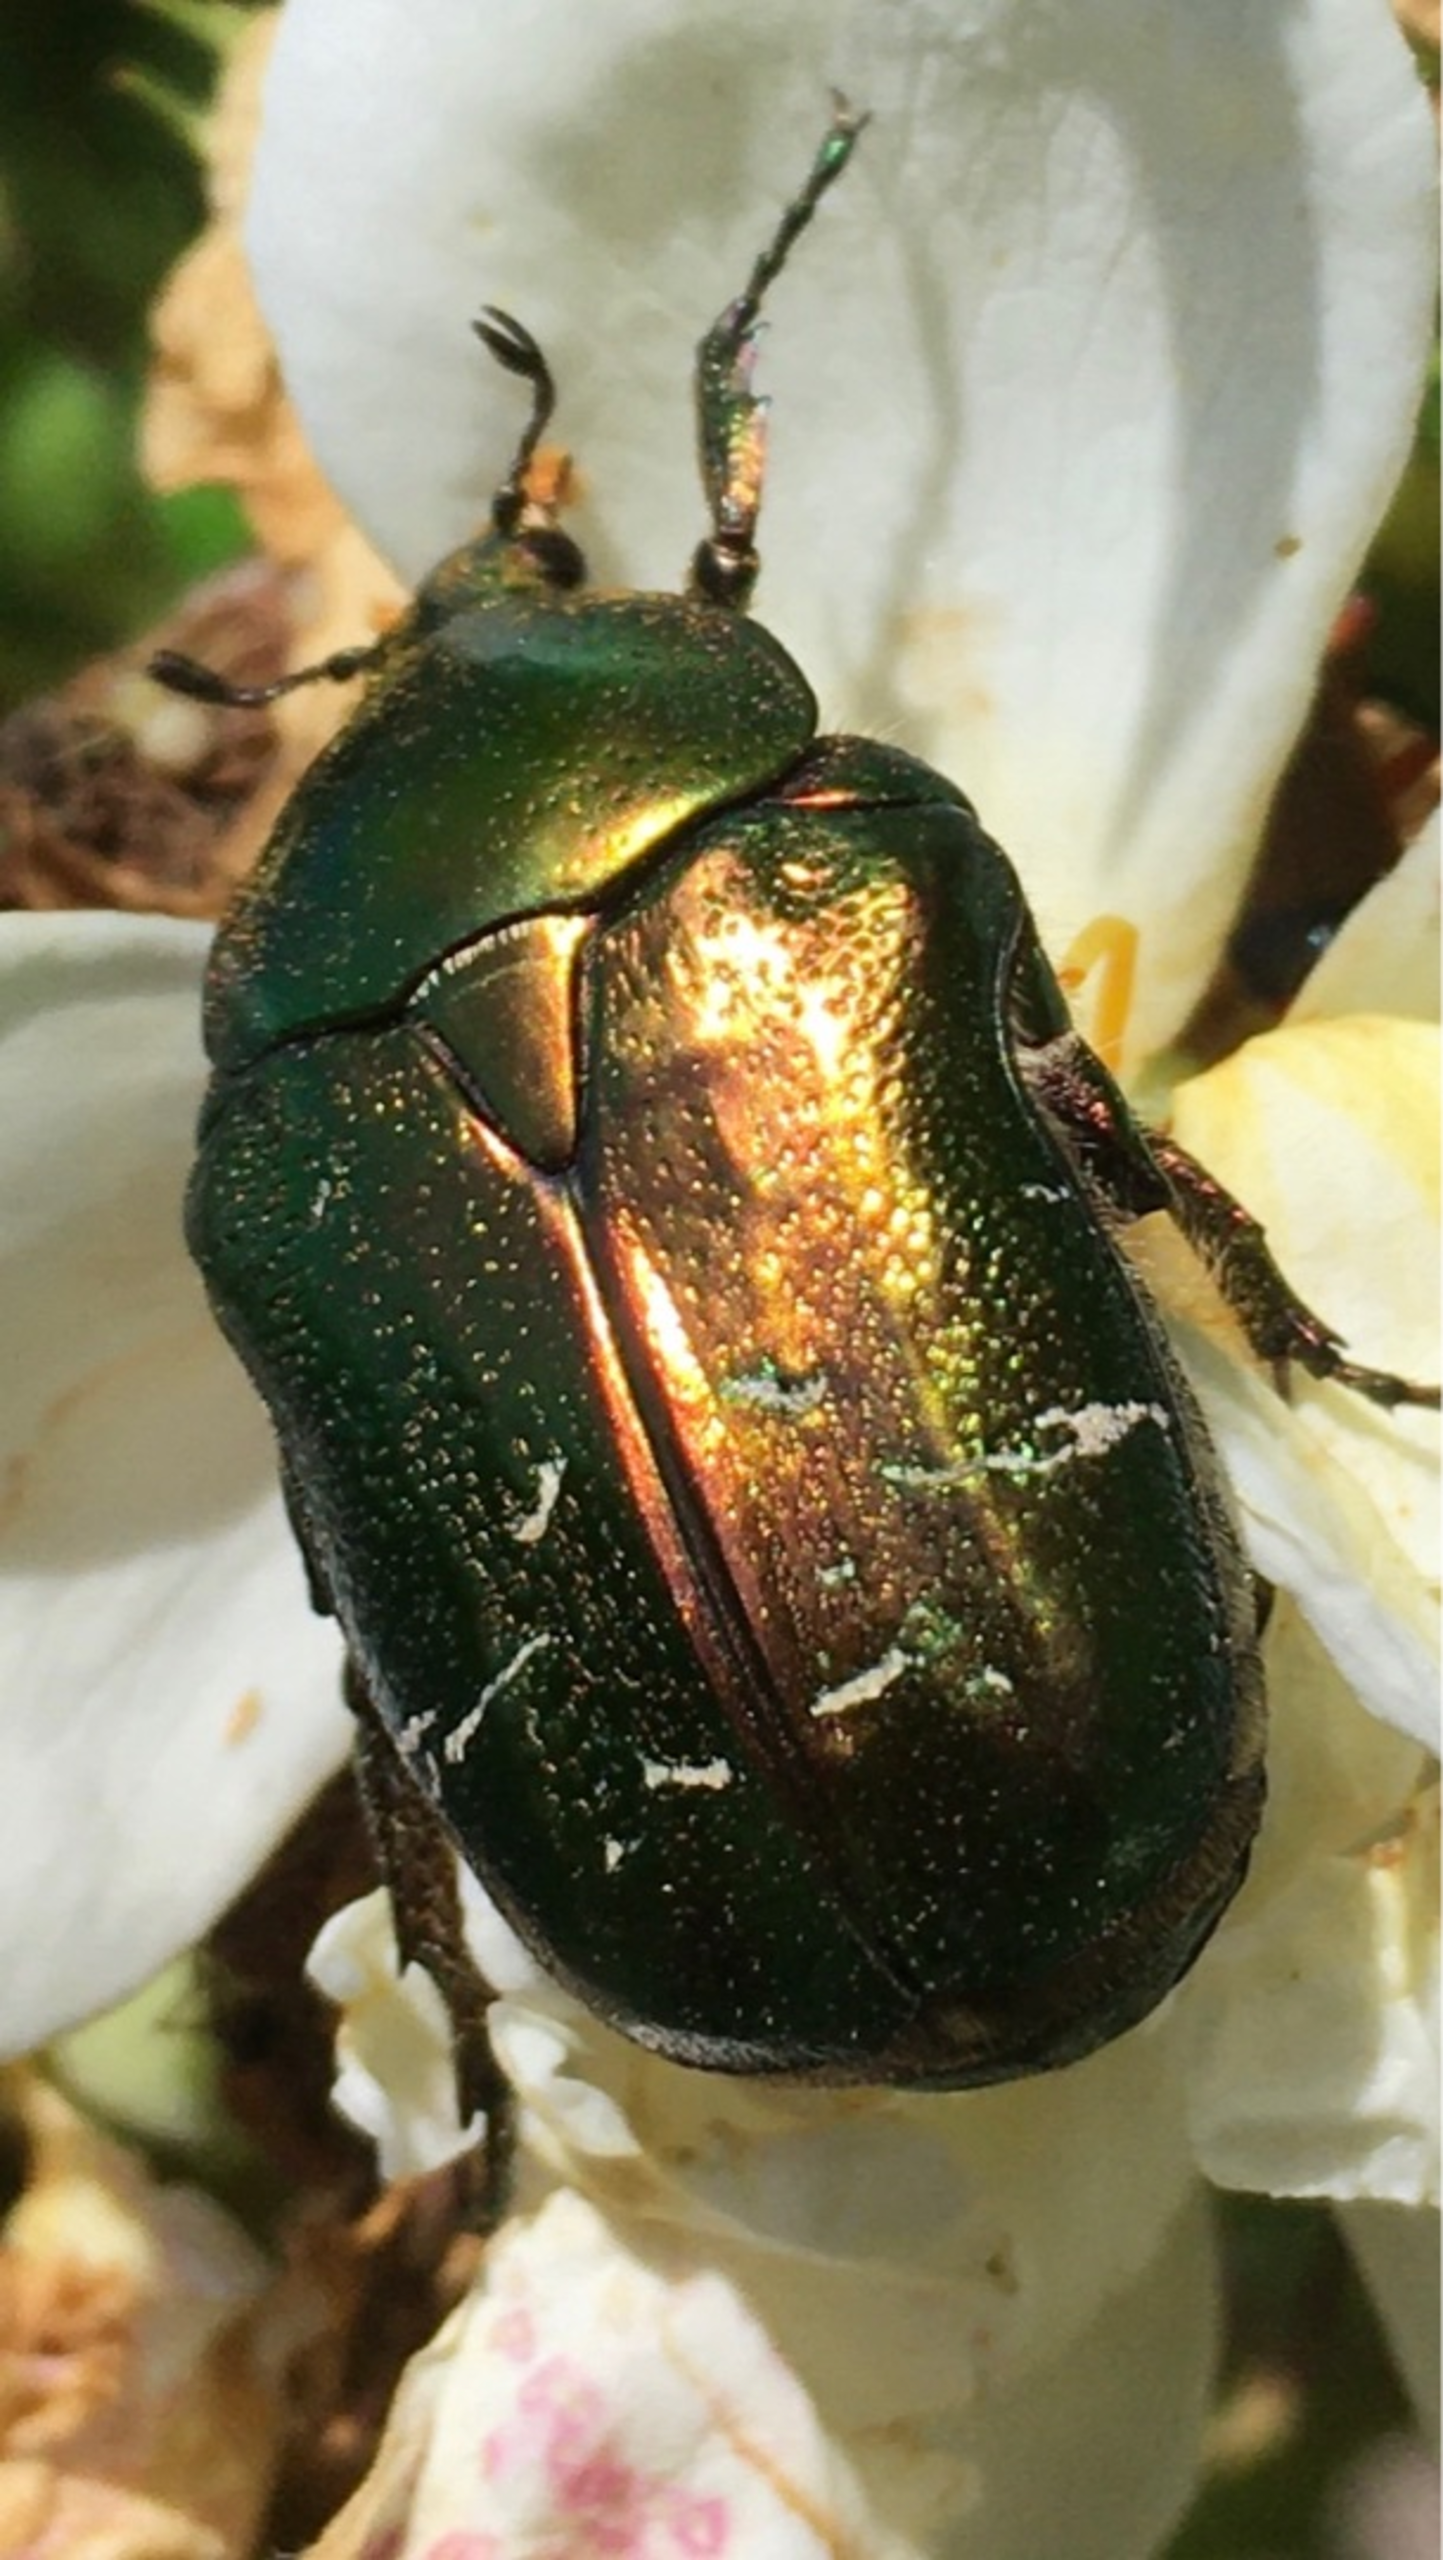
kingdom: Animalia
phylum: Arthropoda
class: Insecta
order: Coleoptera
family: Scarabaeidae
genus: Cetonia
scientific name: Cetonia aurata
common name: Grøn guldbasse
